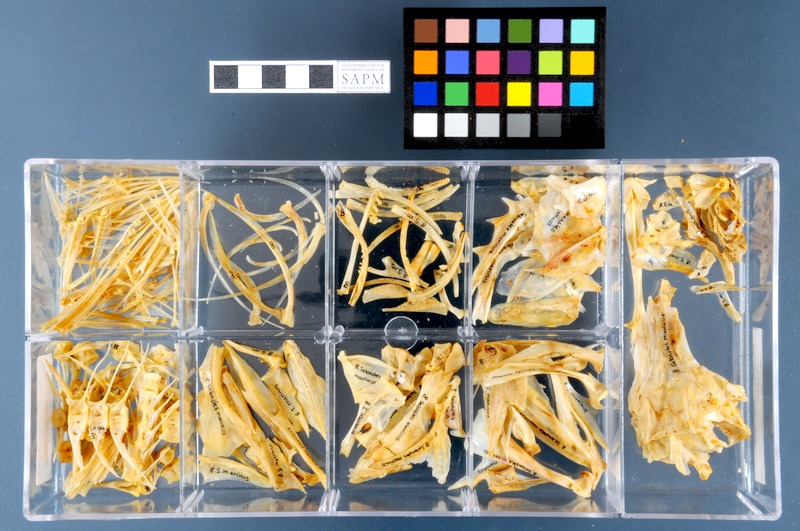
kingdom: Animalia
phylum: Chordata
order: Scorpaeniformes
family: Sebastidae
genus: Sebastes
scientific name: Sebastes norvegicus
